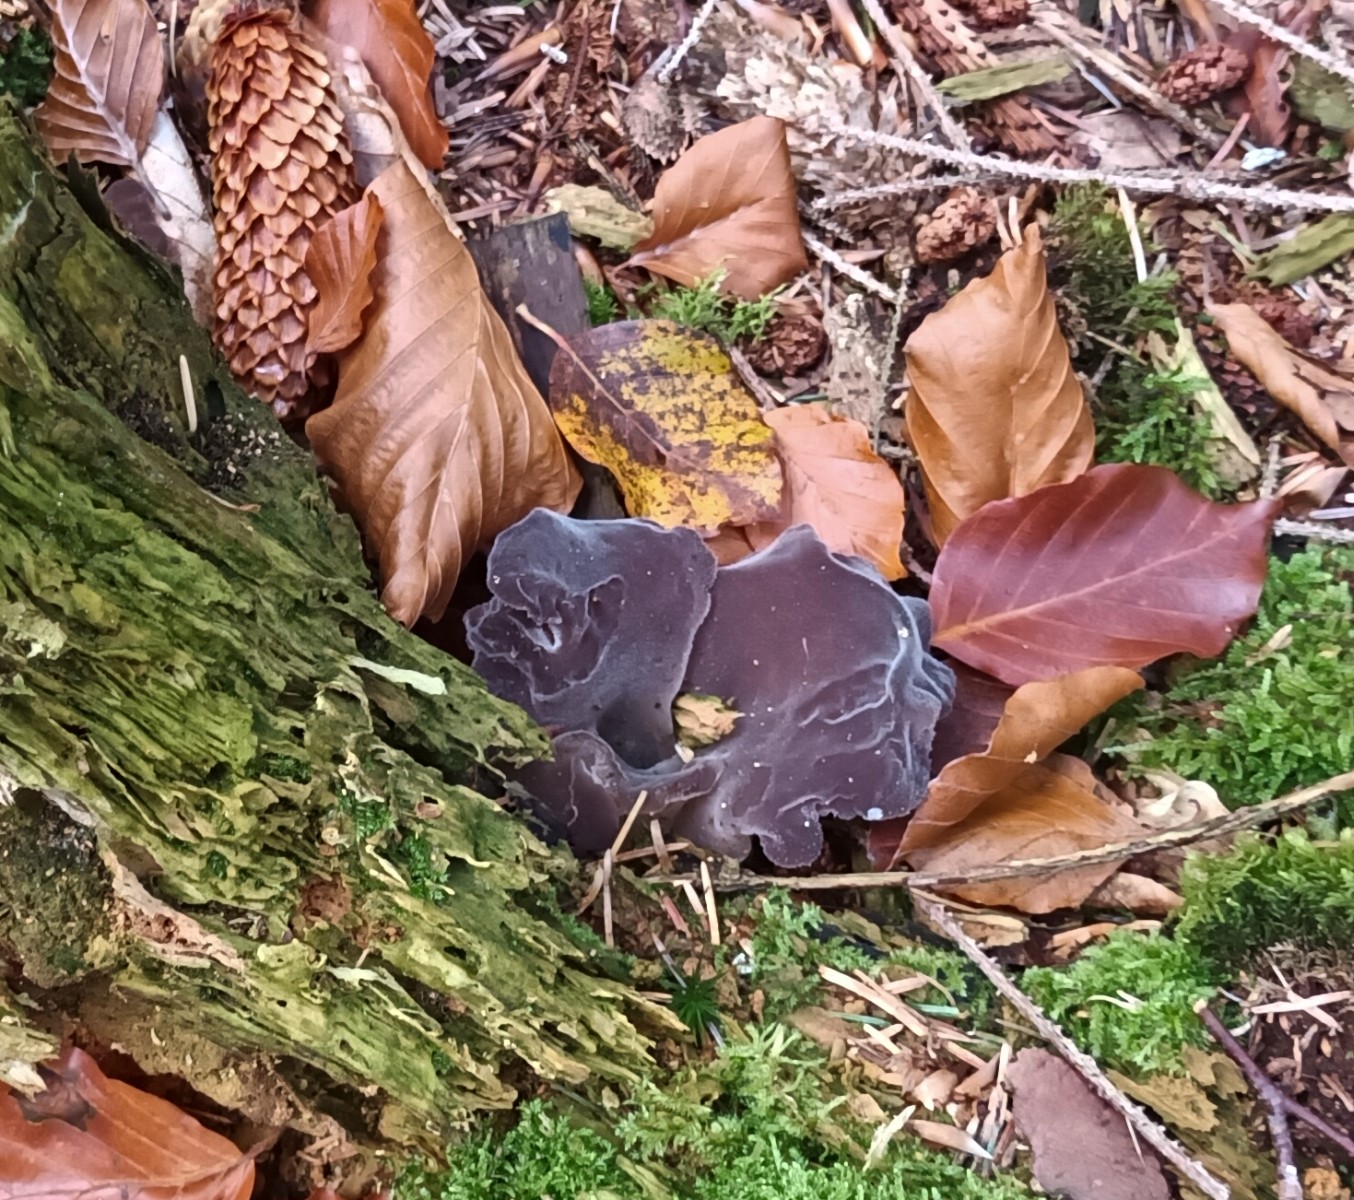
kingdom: Fungi
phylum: Basidiomycota
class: Agaricomycetes
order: Auriculariales
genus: Pseudohydnum
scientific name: Pseudohydnum gelatinosum
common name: bævretand
